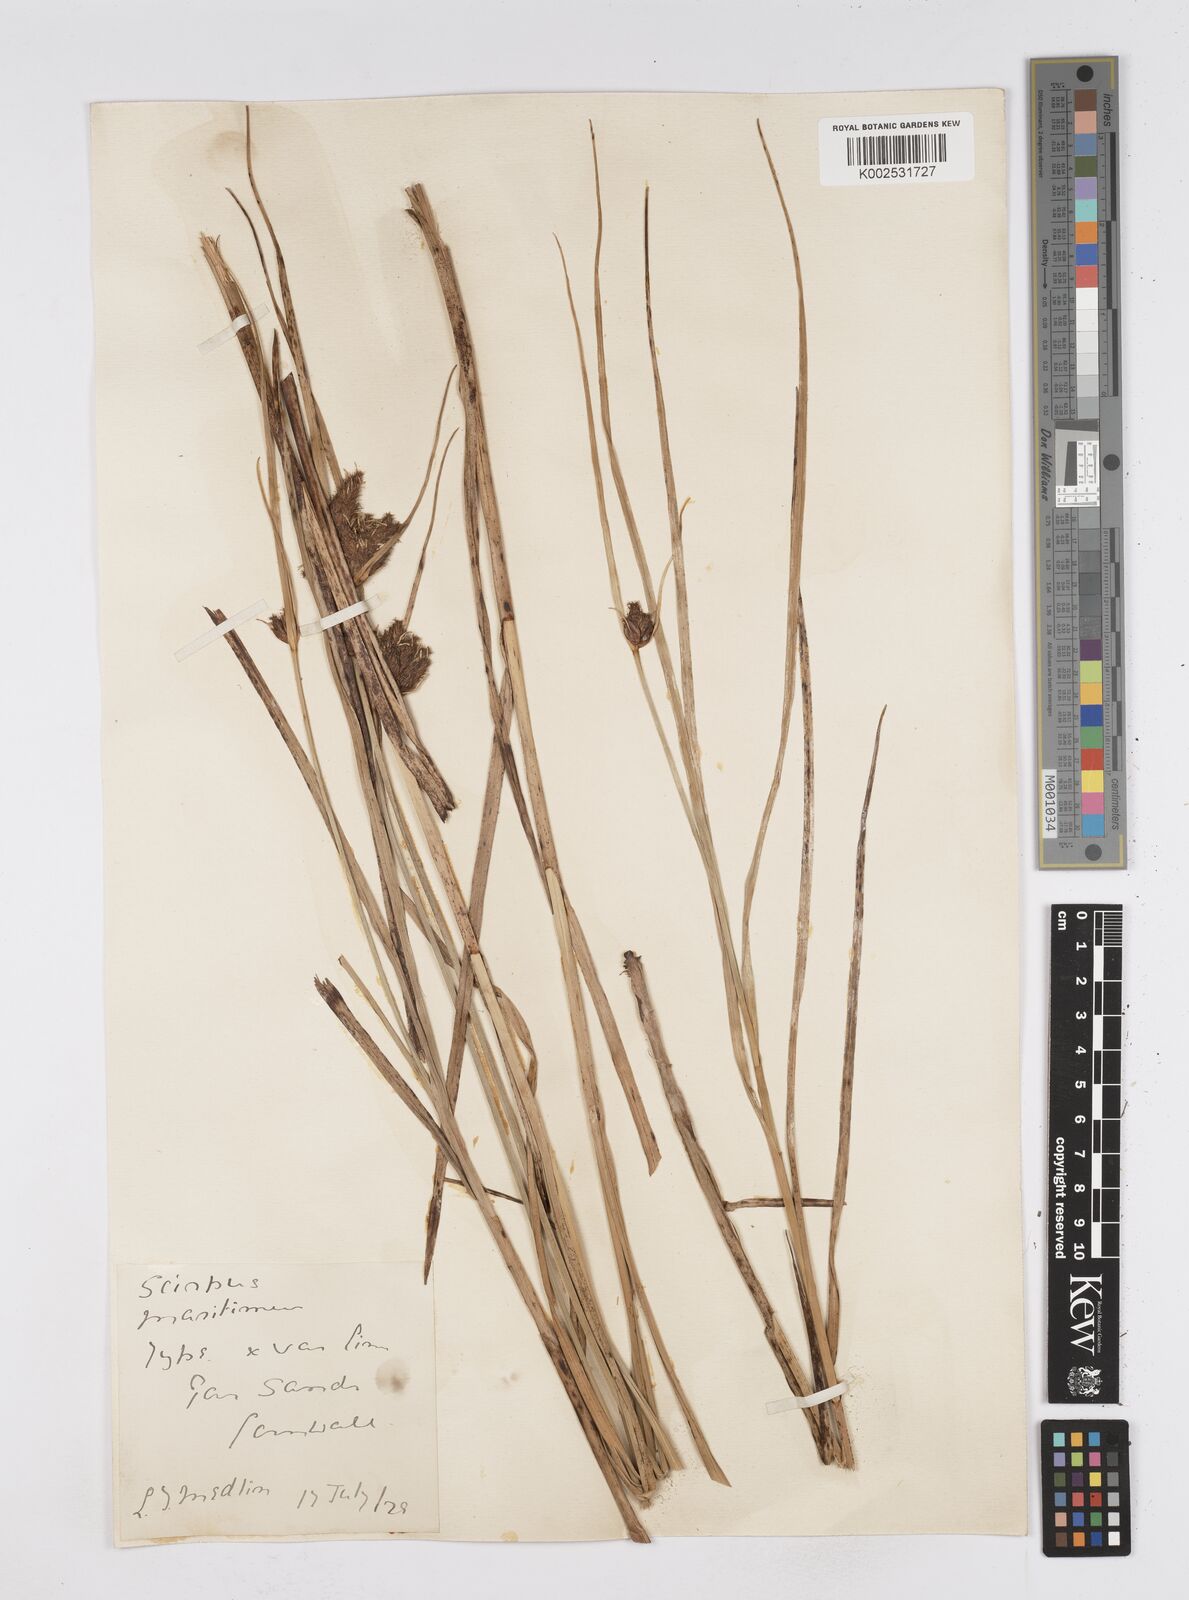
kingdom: Plantae
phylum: Tracheophyta
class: Liliopsida
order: Poales
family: Cyperaceae
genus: Bolboschoenus
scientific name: Bolboschoenus maritimus
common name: Sea club-rush
